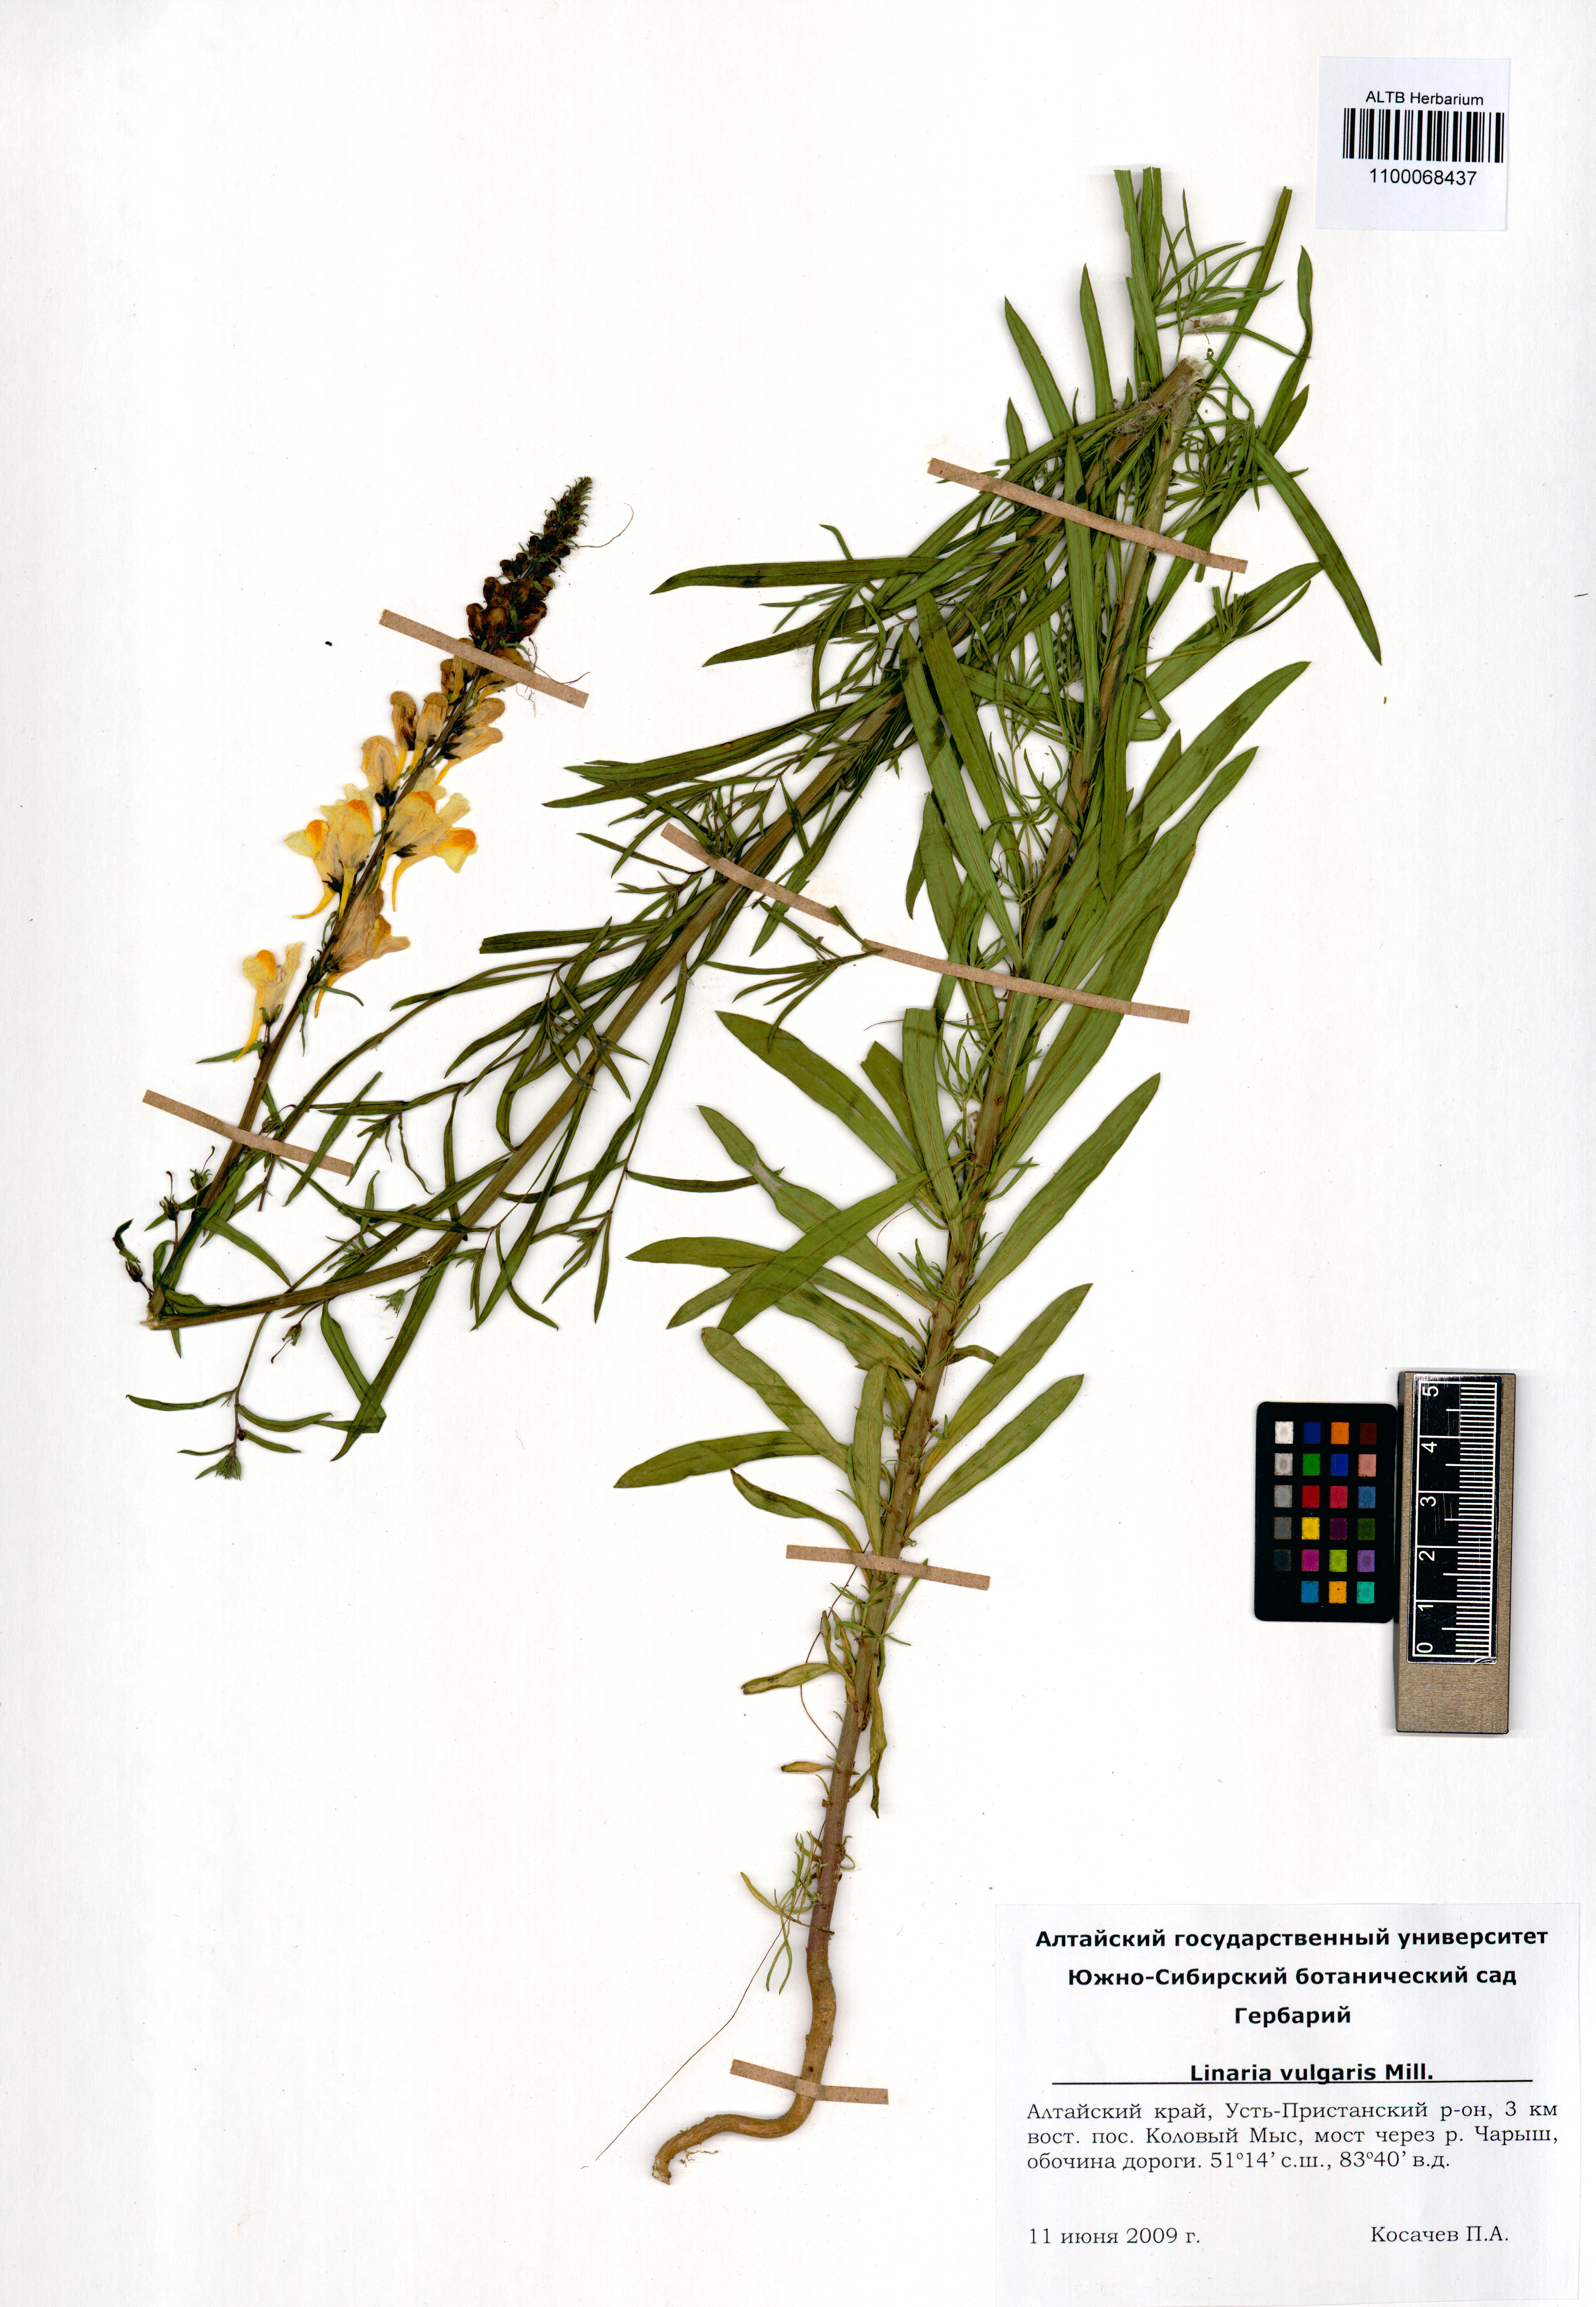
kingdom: Plantae
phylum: Tracheophyta
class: Magnoliopsida
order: Lamiales
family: Plantaginaceae
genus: Linaria
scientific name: Linaria vulgaris
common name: Butter and eggs
